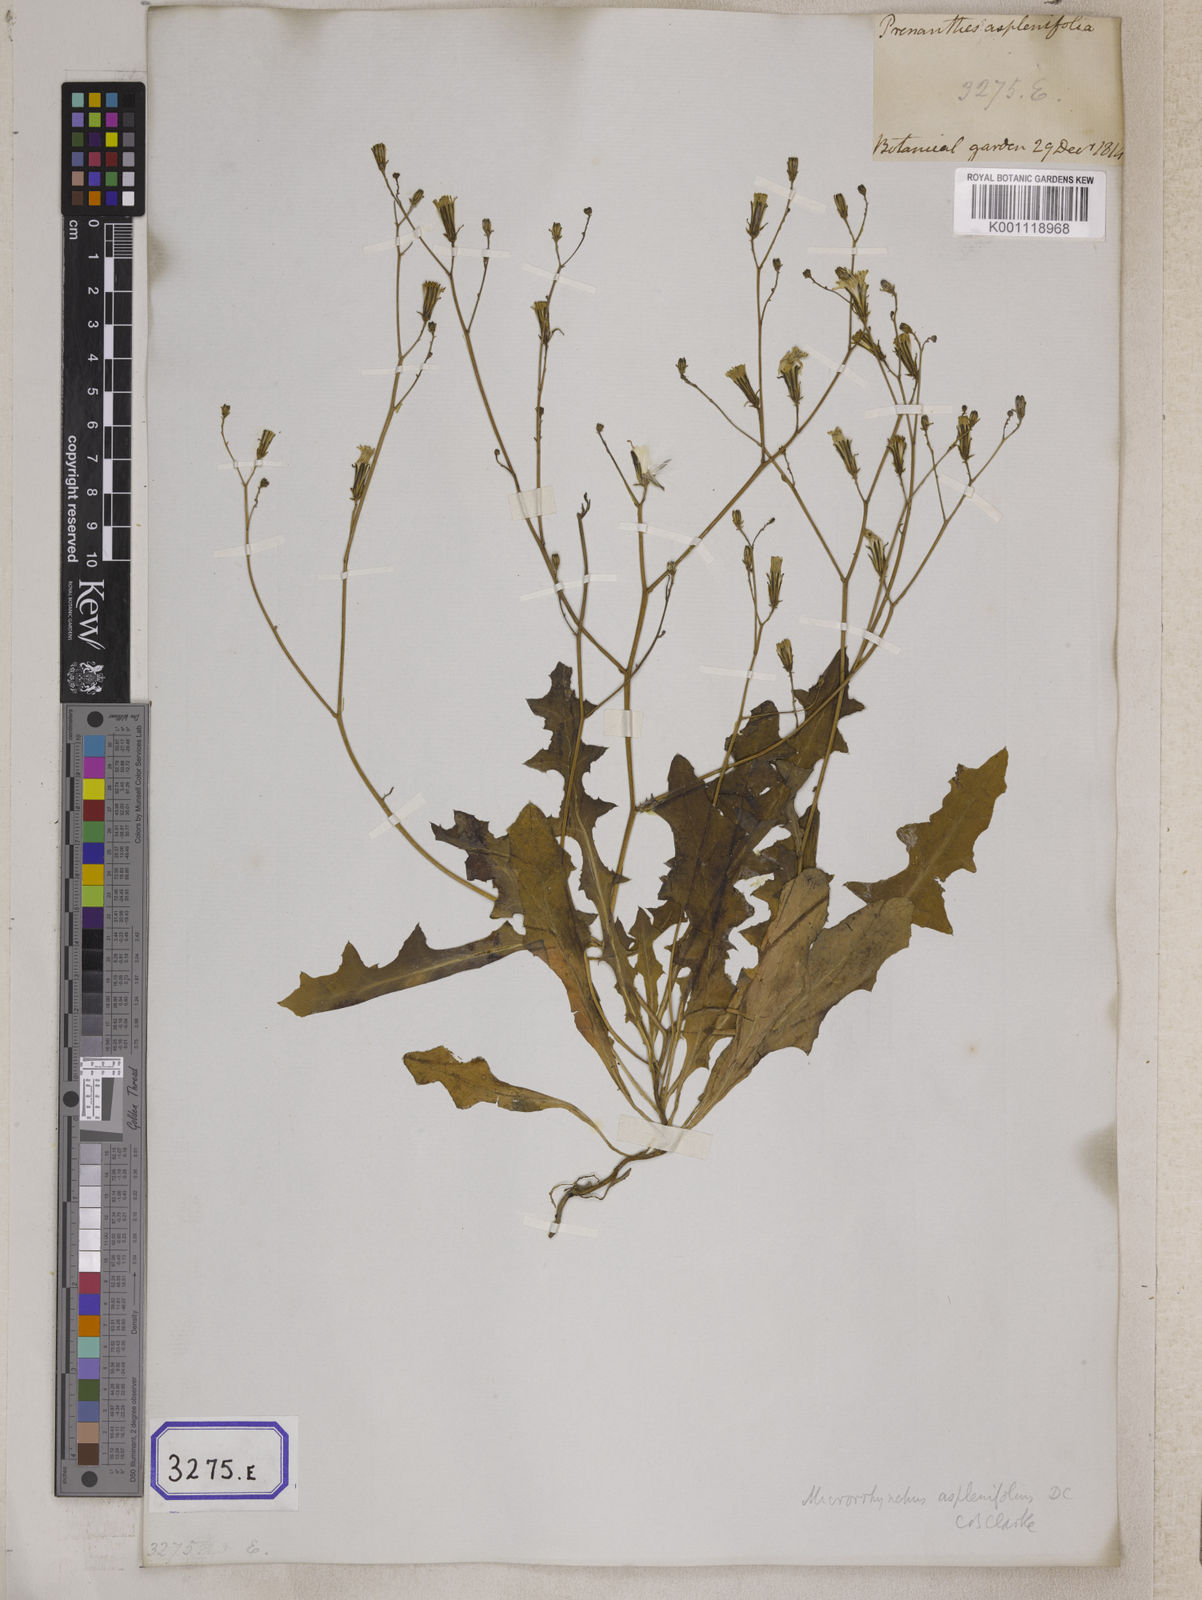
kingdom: Plantae
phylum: Tracheophyta
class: Magnoliopsida
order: Asterales
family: Asteraceae
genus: Launaea
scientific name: Launaea aspleniifolia
